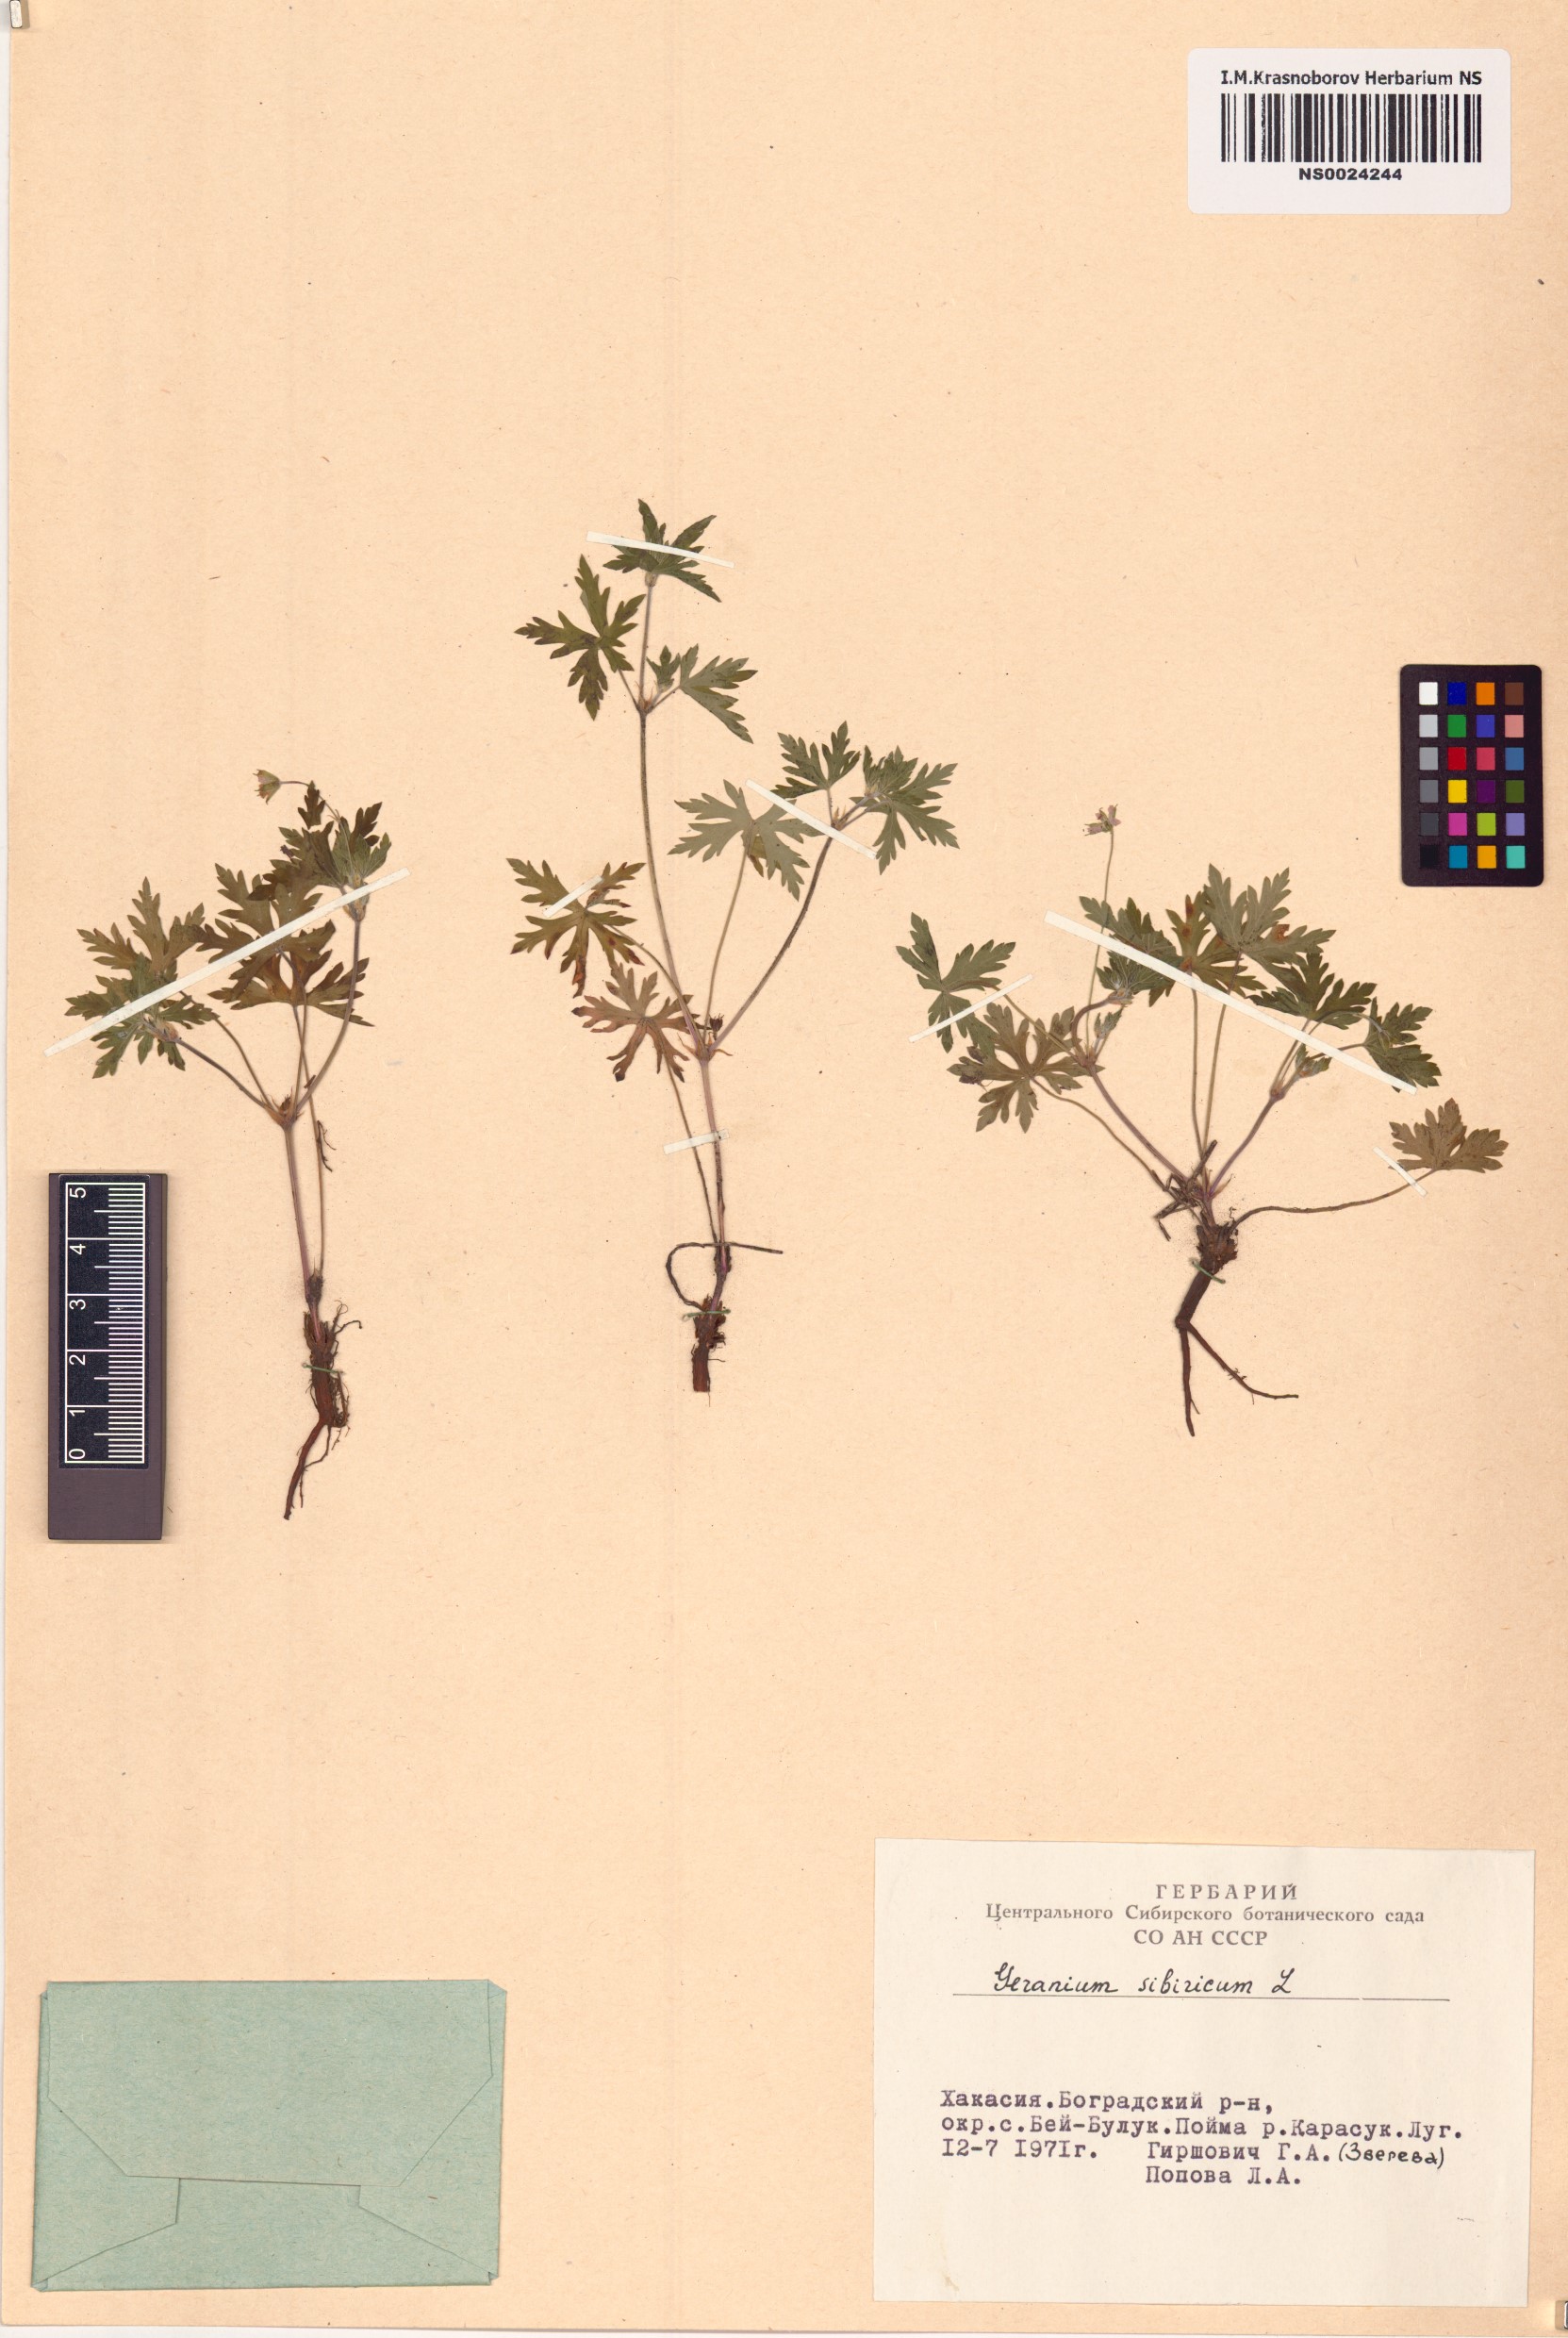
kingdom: Plantae
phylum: Tracheophyta
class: Magnoliopsida
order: Geraniales
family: Geraniaceae
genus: Geranium
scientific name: Geranium sibiricum
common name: Siberian crane's-bill
